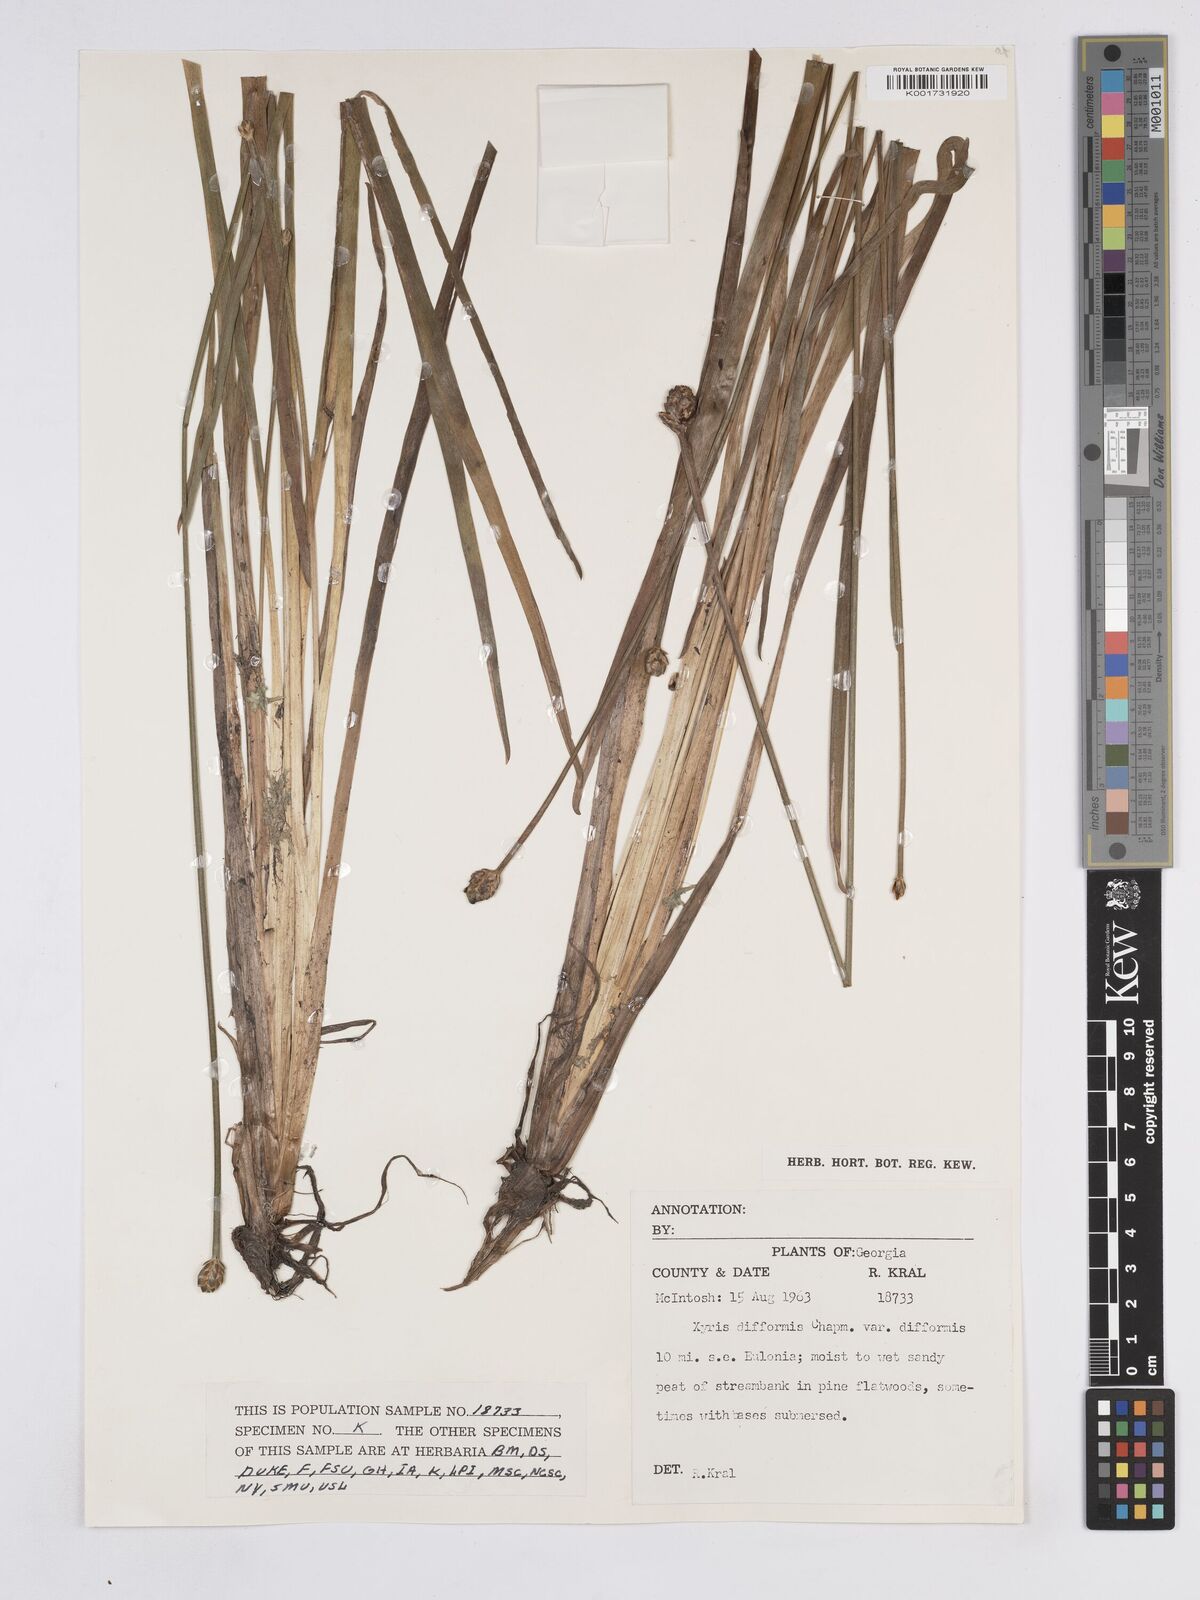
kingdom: Plantae
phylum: Tracheophyta
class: Liliopsida
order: Poales
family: Xyridaceae
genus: Xyris
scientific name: Xyris difformis
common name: Bog yellow-eyed-grass
